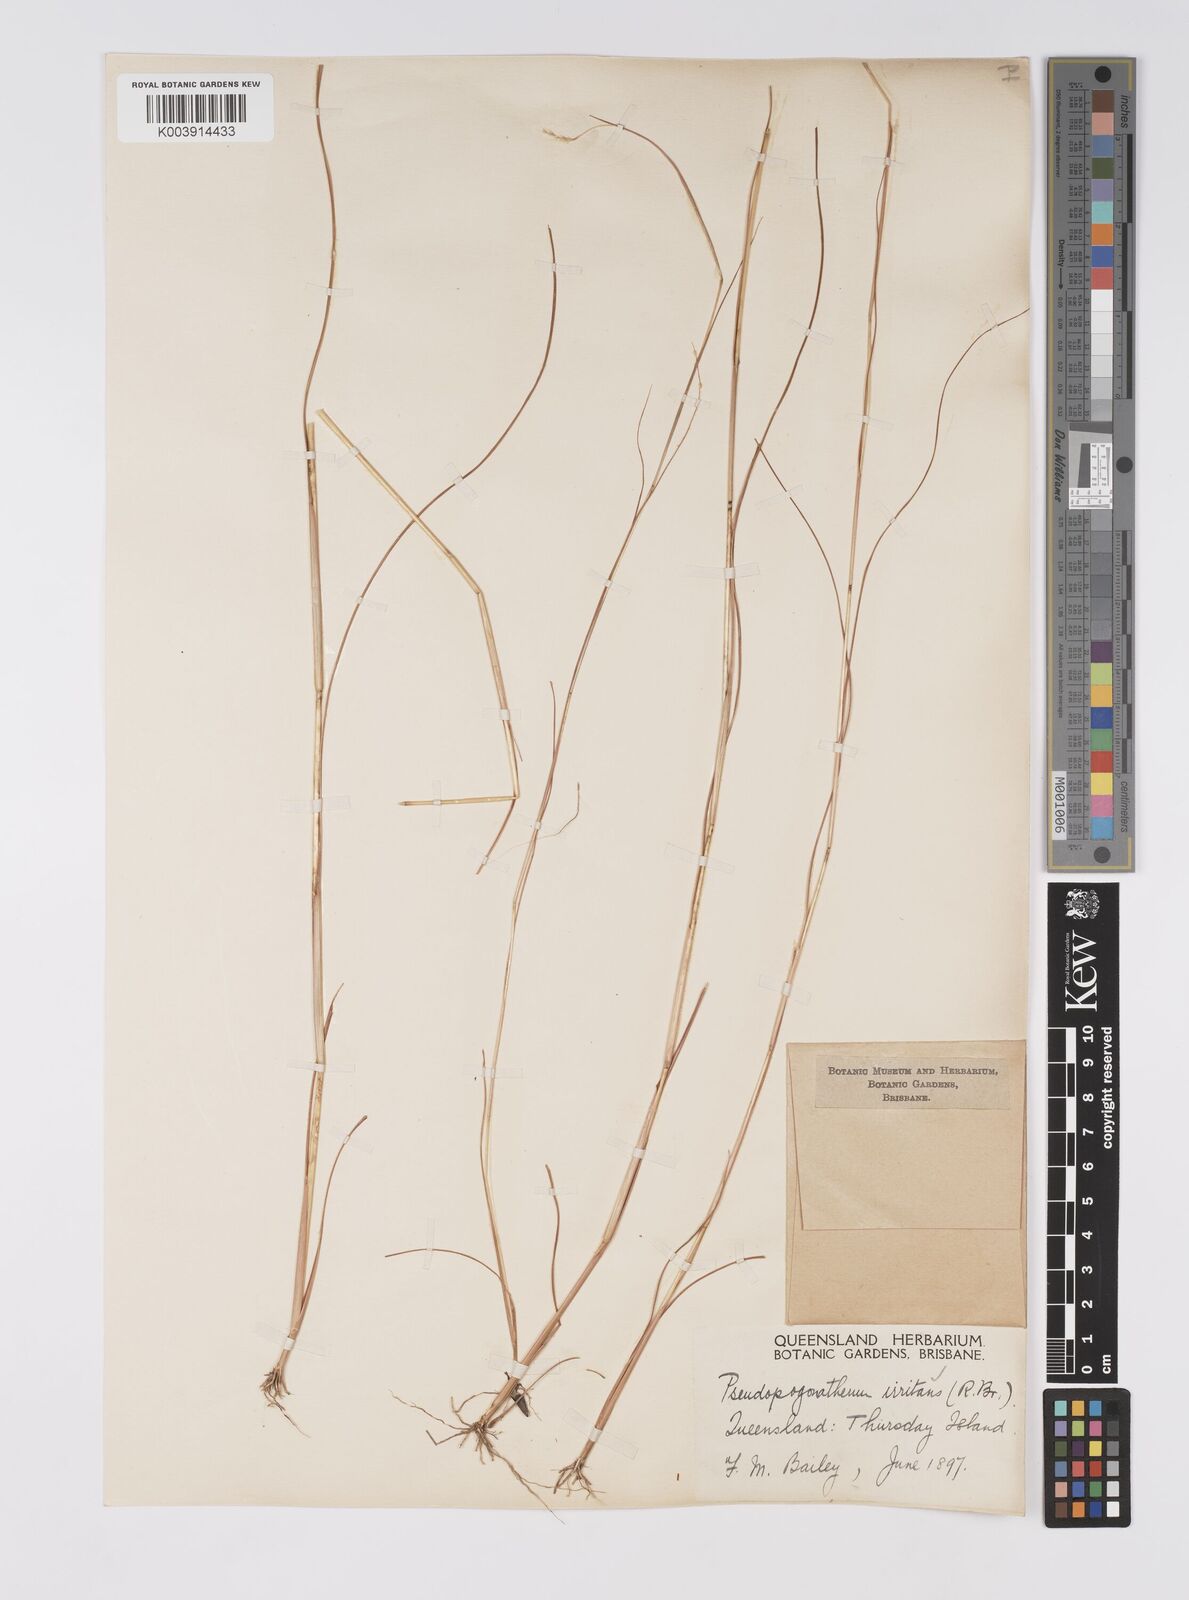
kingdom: Plantae
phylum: Tracheophyta
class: Liliopsida
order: Poales
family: Poaceae
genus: Pseudopogonatherum
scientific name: Pseudopogonatherum irritans
